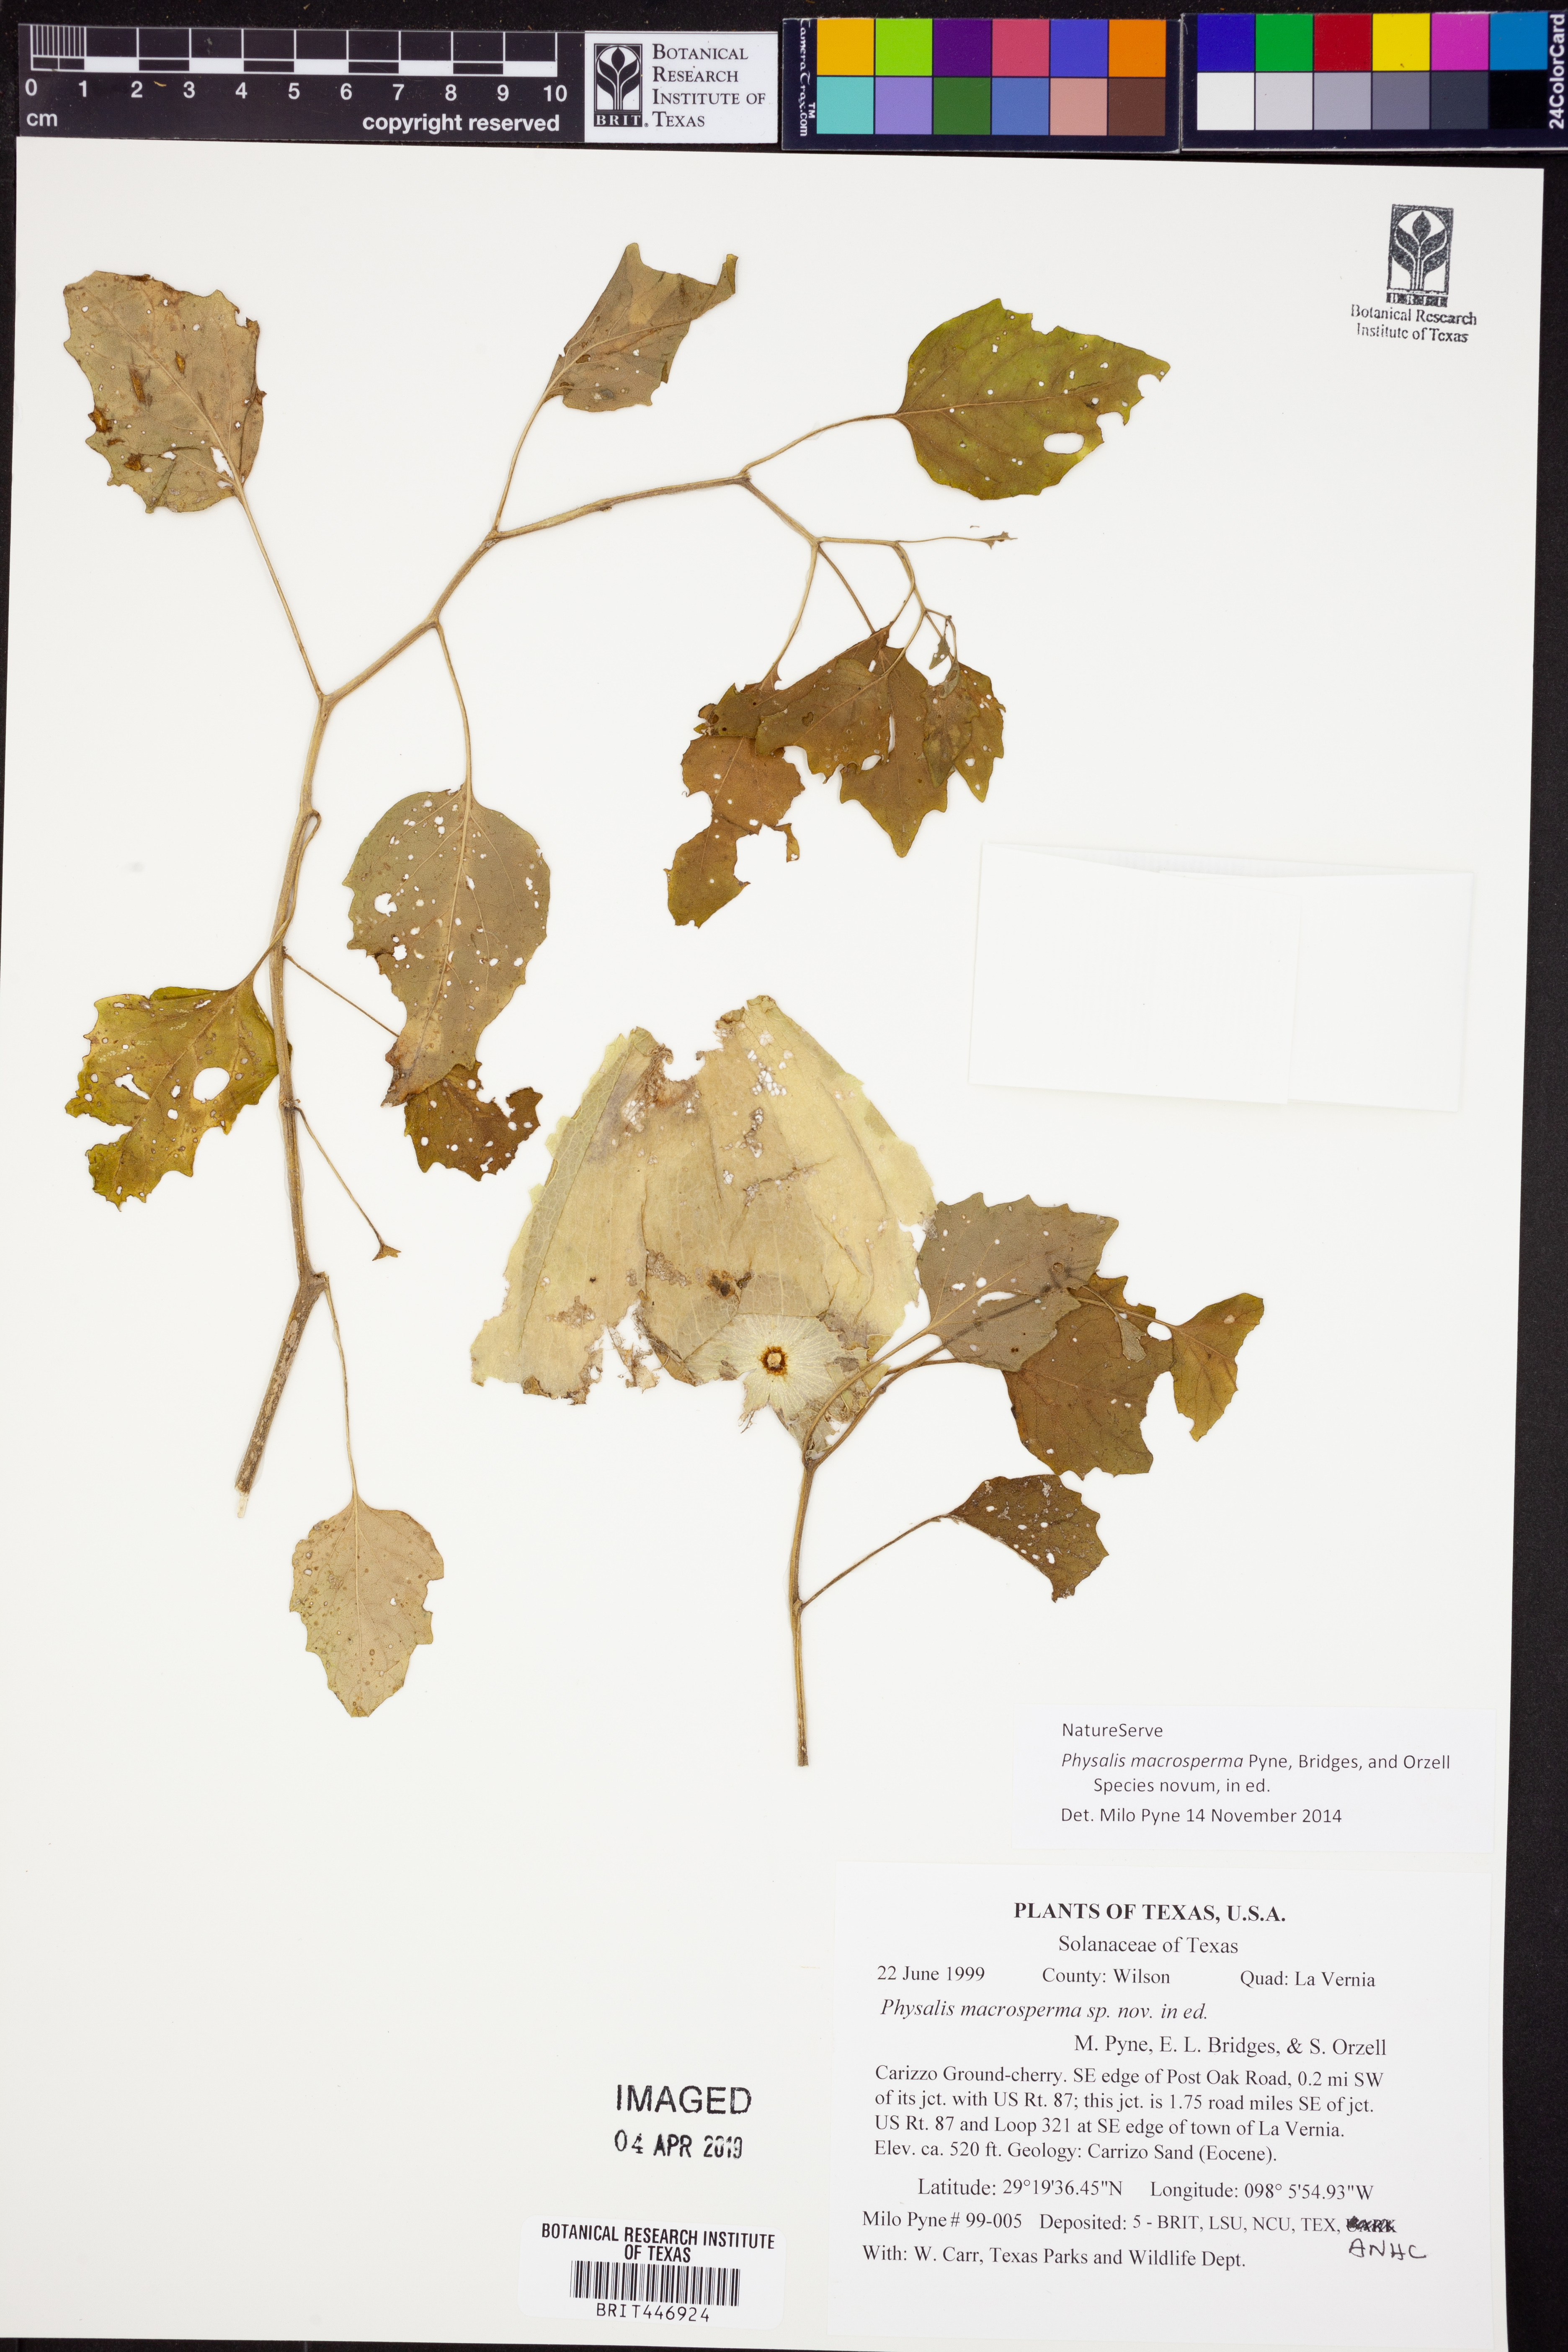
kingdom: Plantae
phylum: Tracheophyta
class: Magnoliopsida
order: Solanales
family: Solanaceae
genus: Physalis
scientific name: Physalis macrosperma
